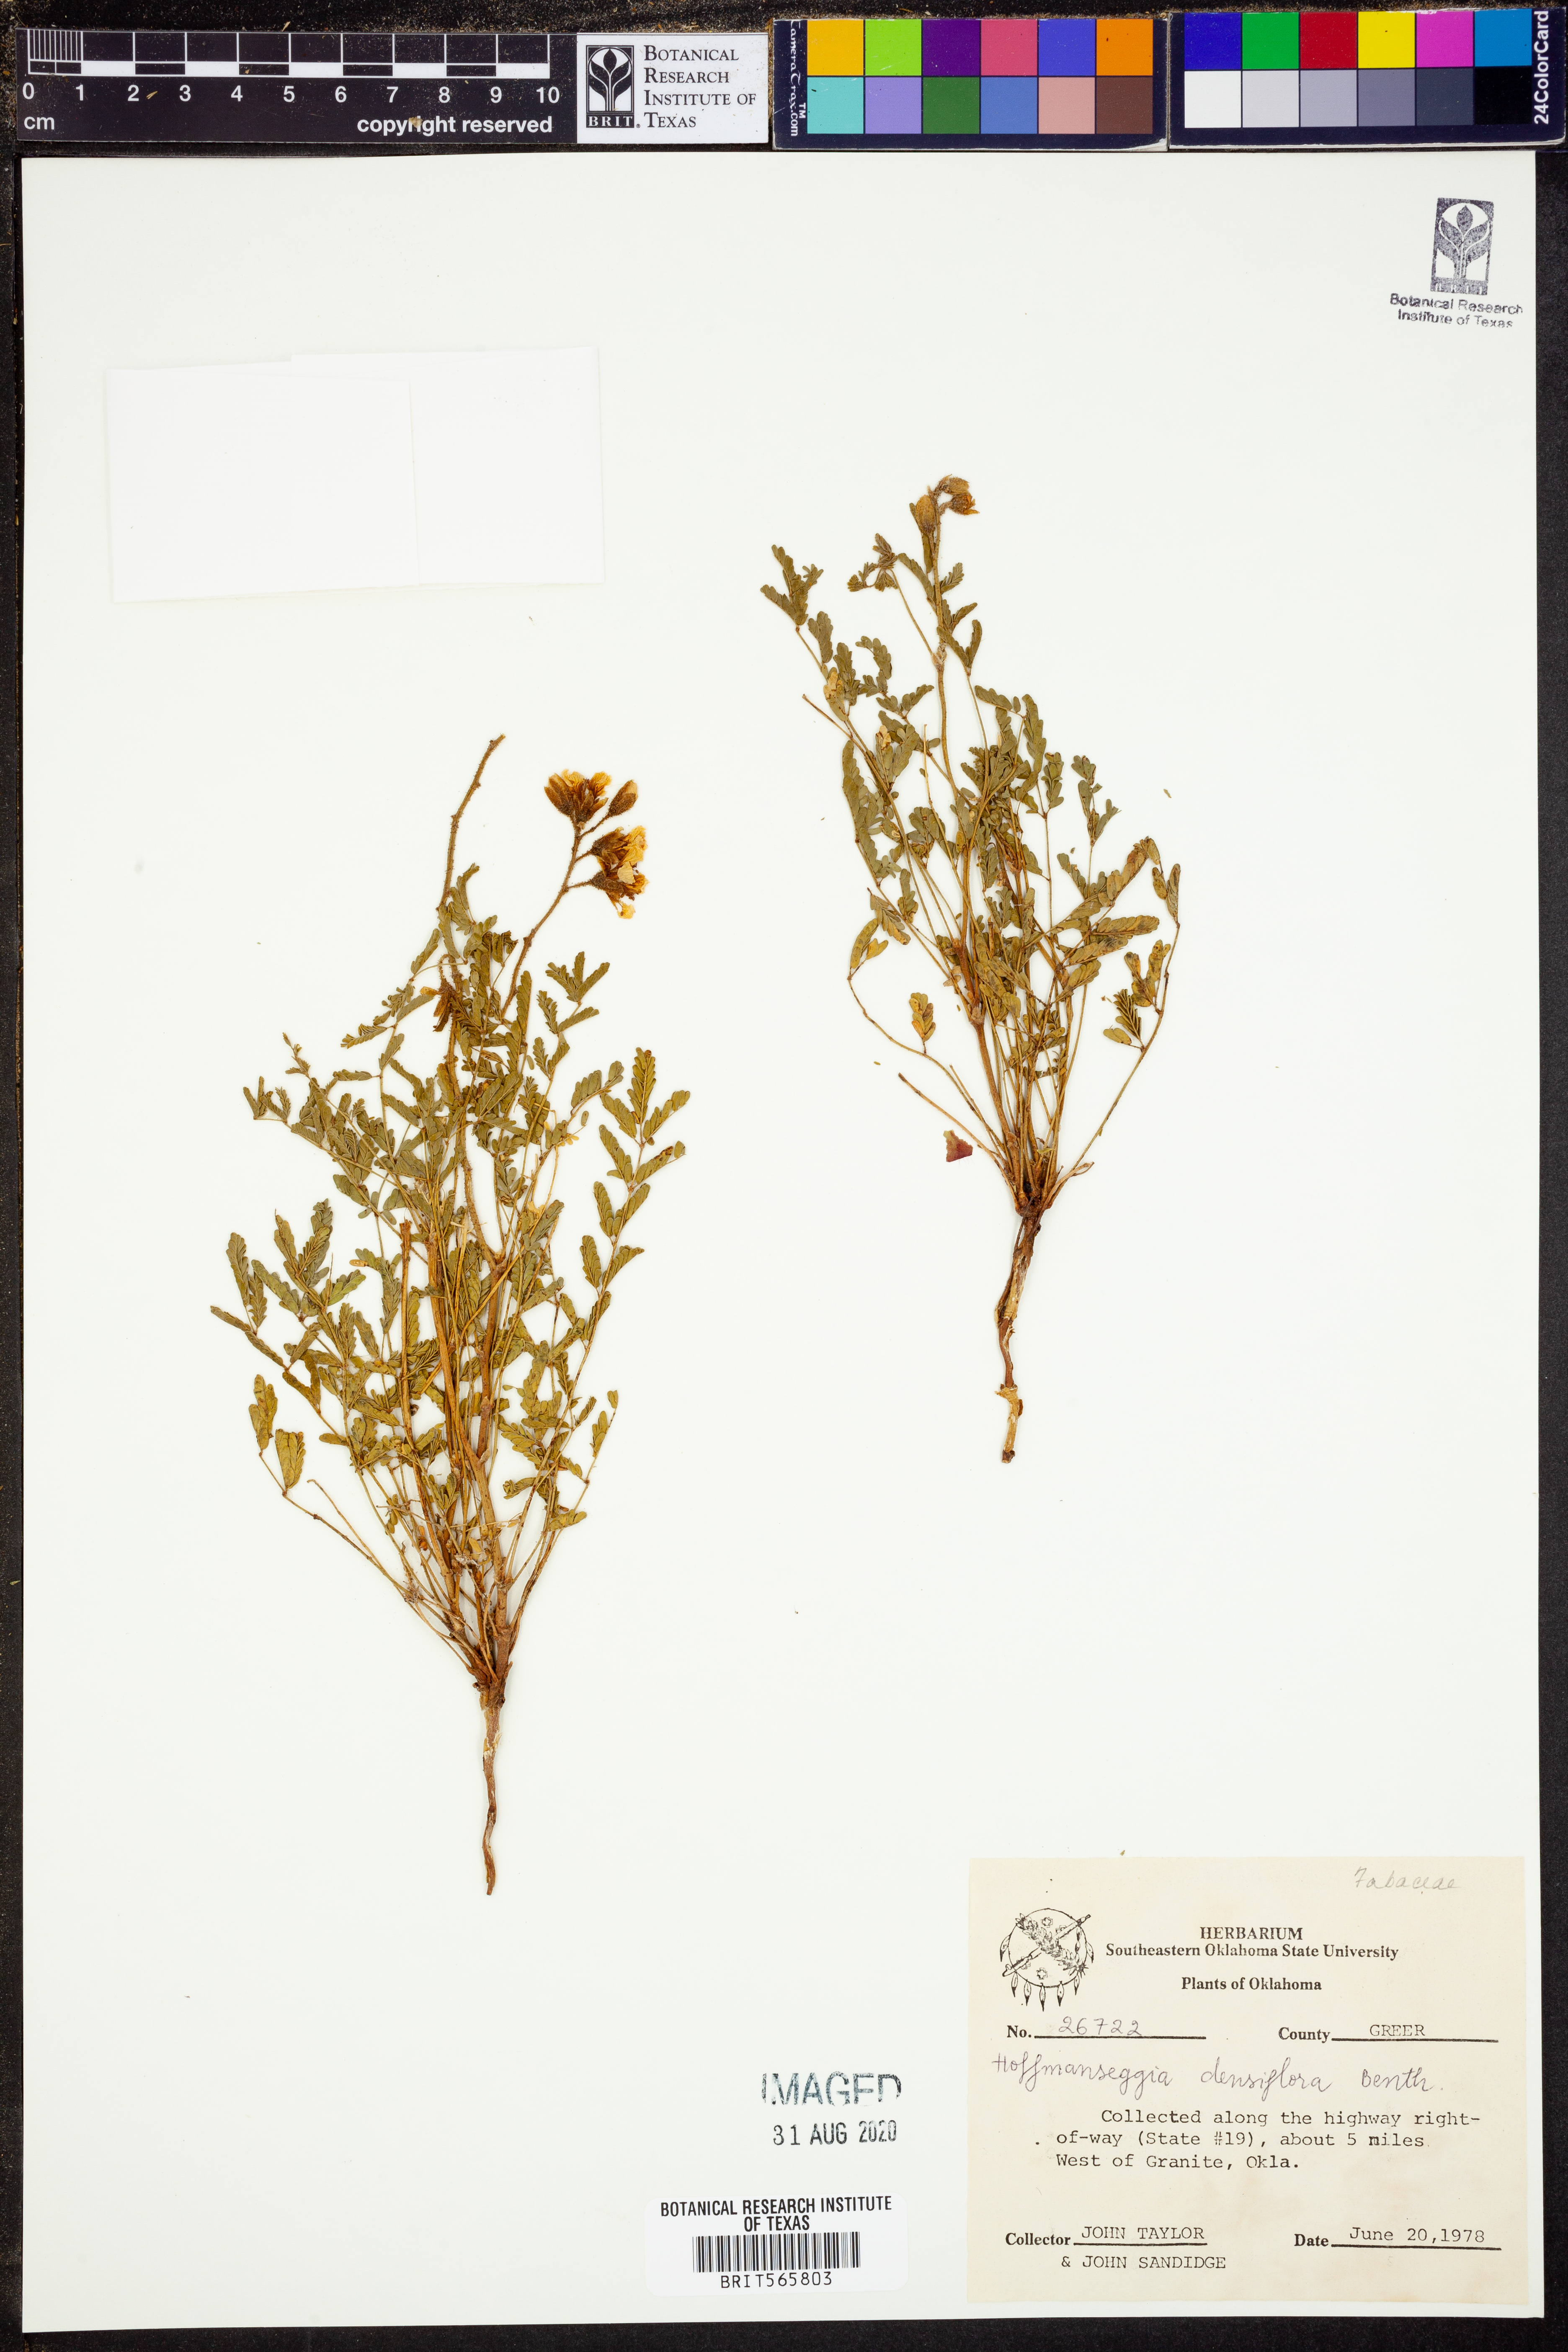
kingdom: Plantae
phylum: Tracheophyta
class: Magnoliopsida
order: Fabales
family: Fabaceae
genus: Hoffmannseggia
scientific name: Hoffmannseggia glauca
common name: Pignut
